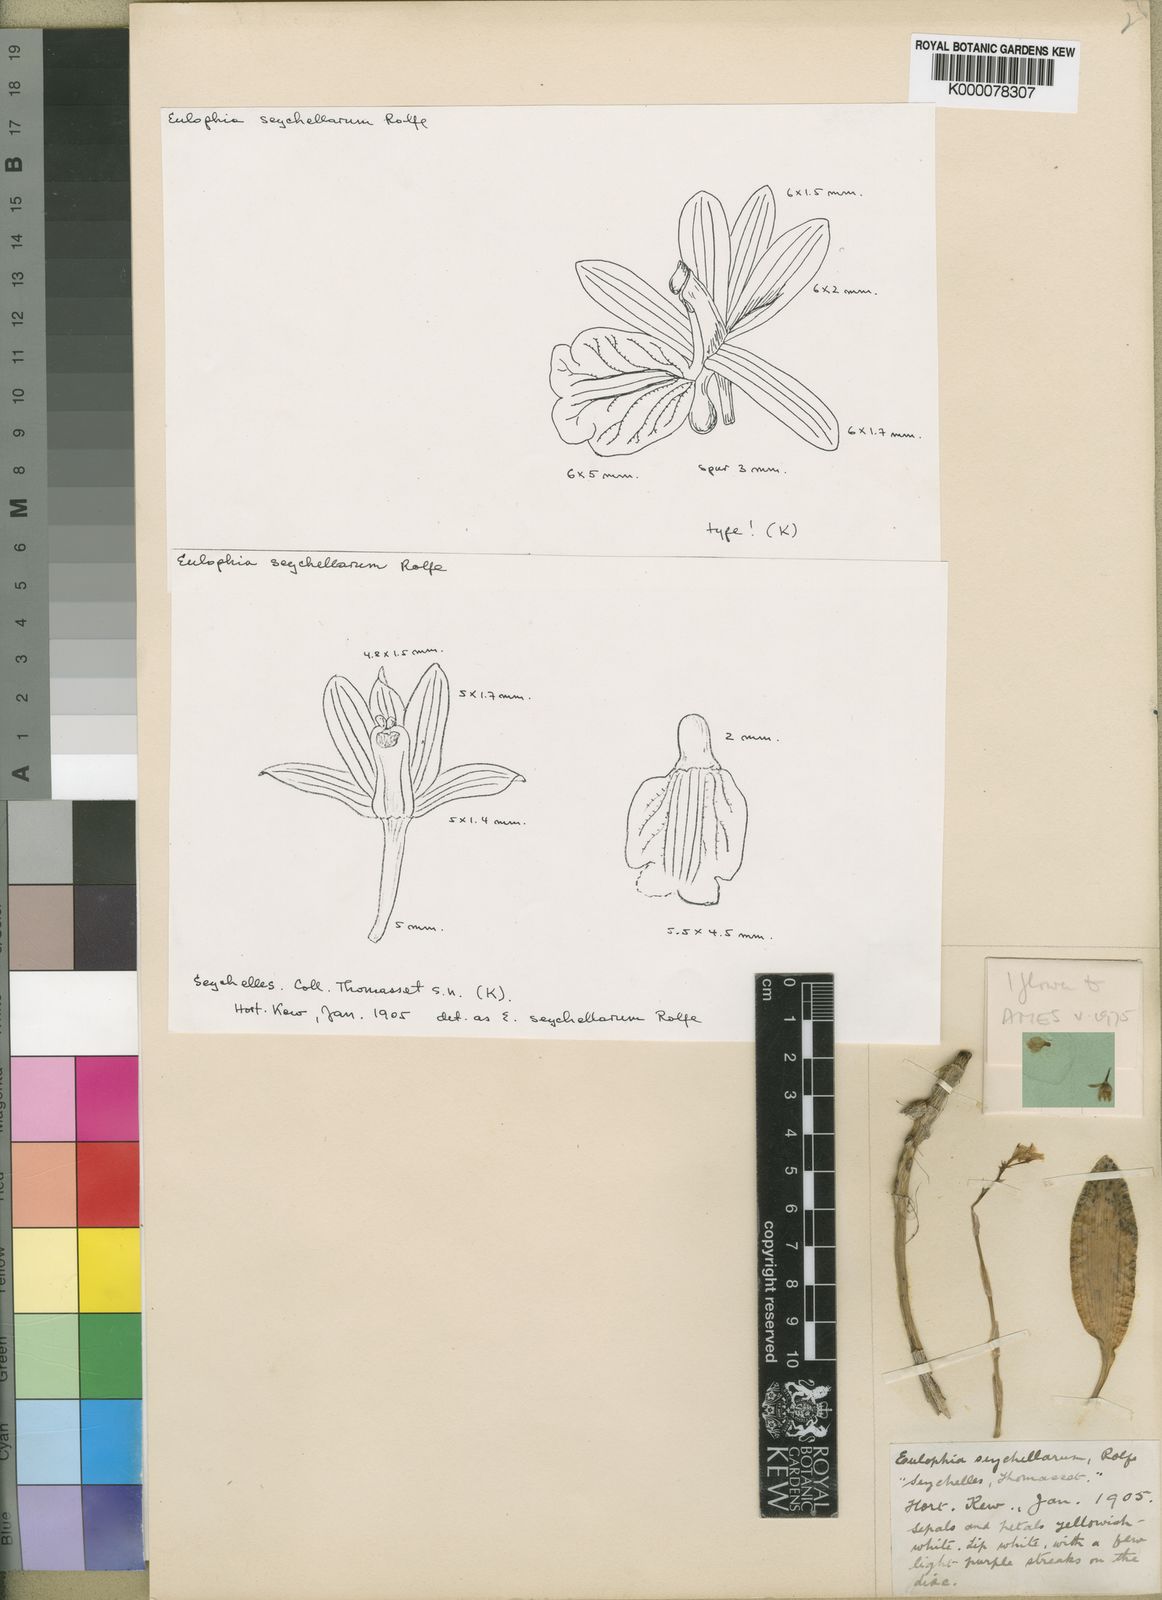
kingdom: Plantae
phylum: Tracheophyta
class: Liliopsida
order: Asparagales
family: Orchidaceae
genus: Eulophia
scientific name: Eulophia seychellarum
